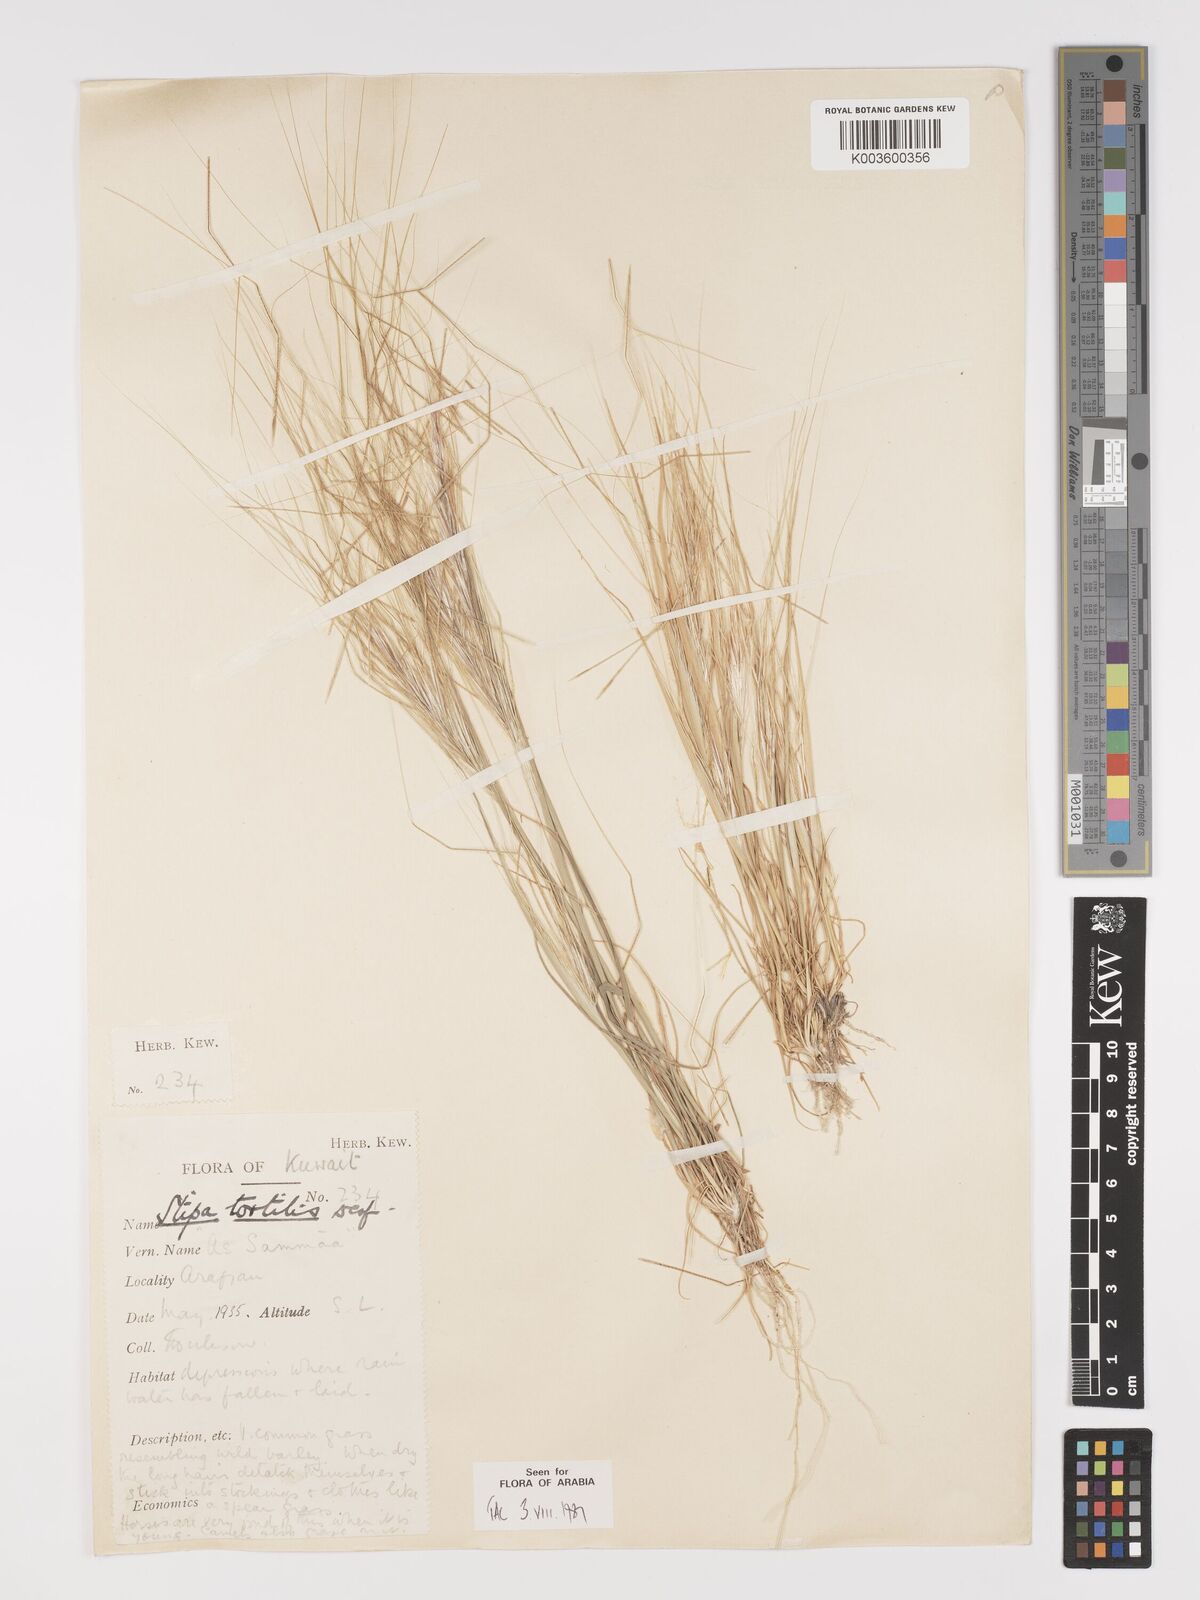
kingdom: Plantae
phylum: Tracheophyta
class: Liliopsida
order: Poales
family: Poaceae
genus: Stipellula
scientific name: Stipellula capensis
